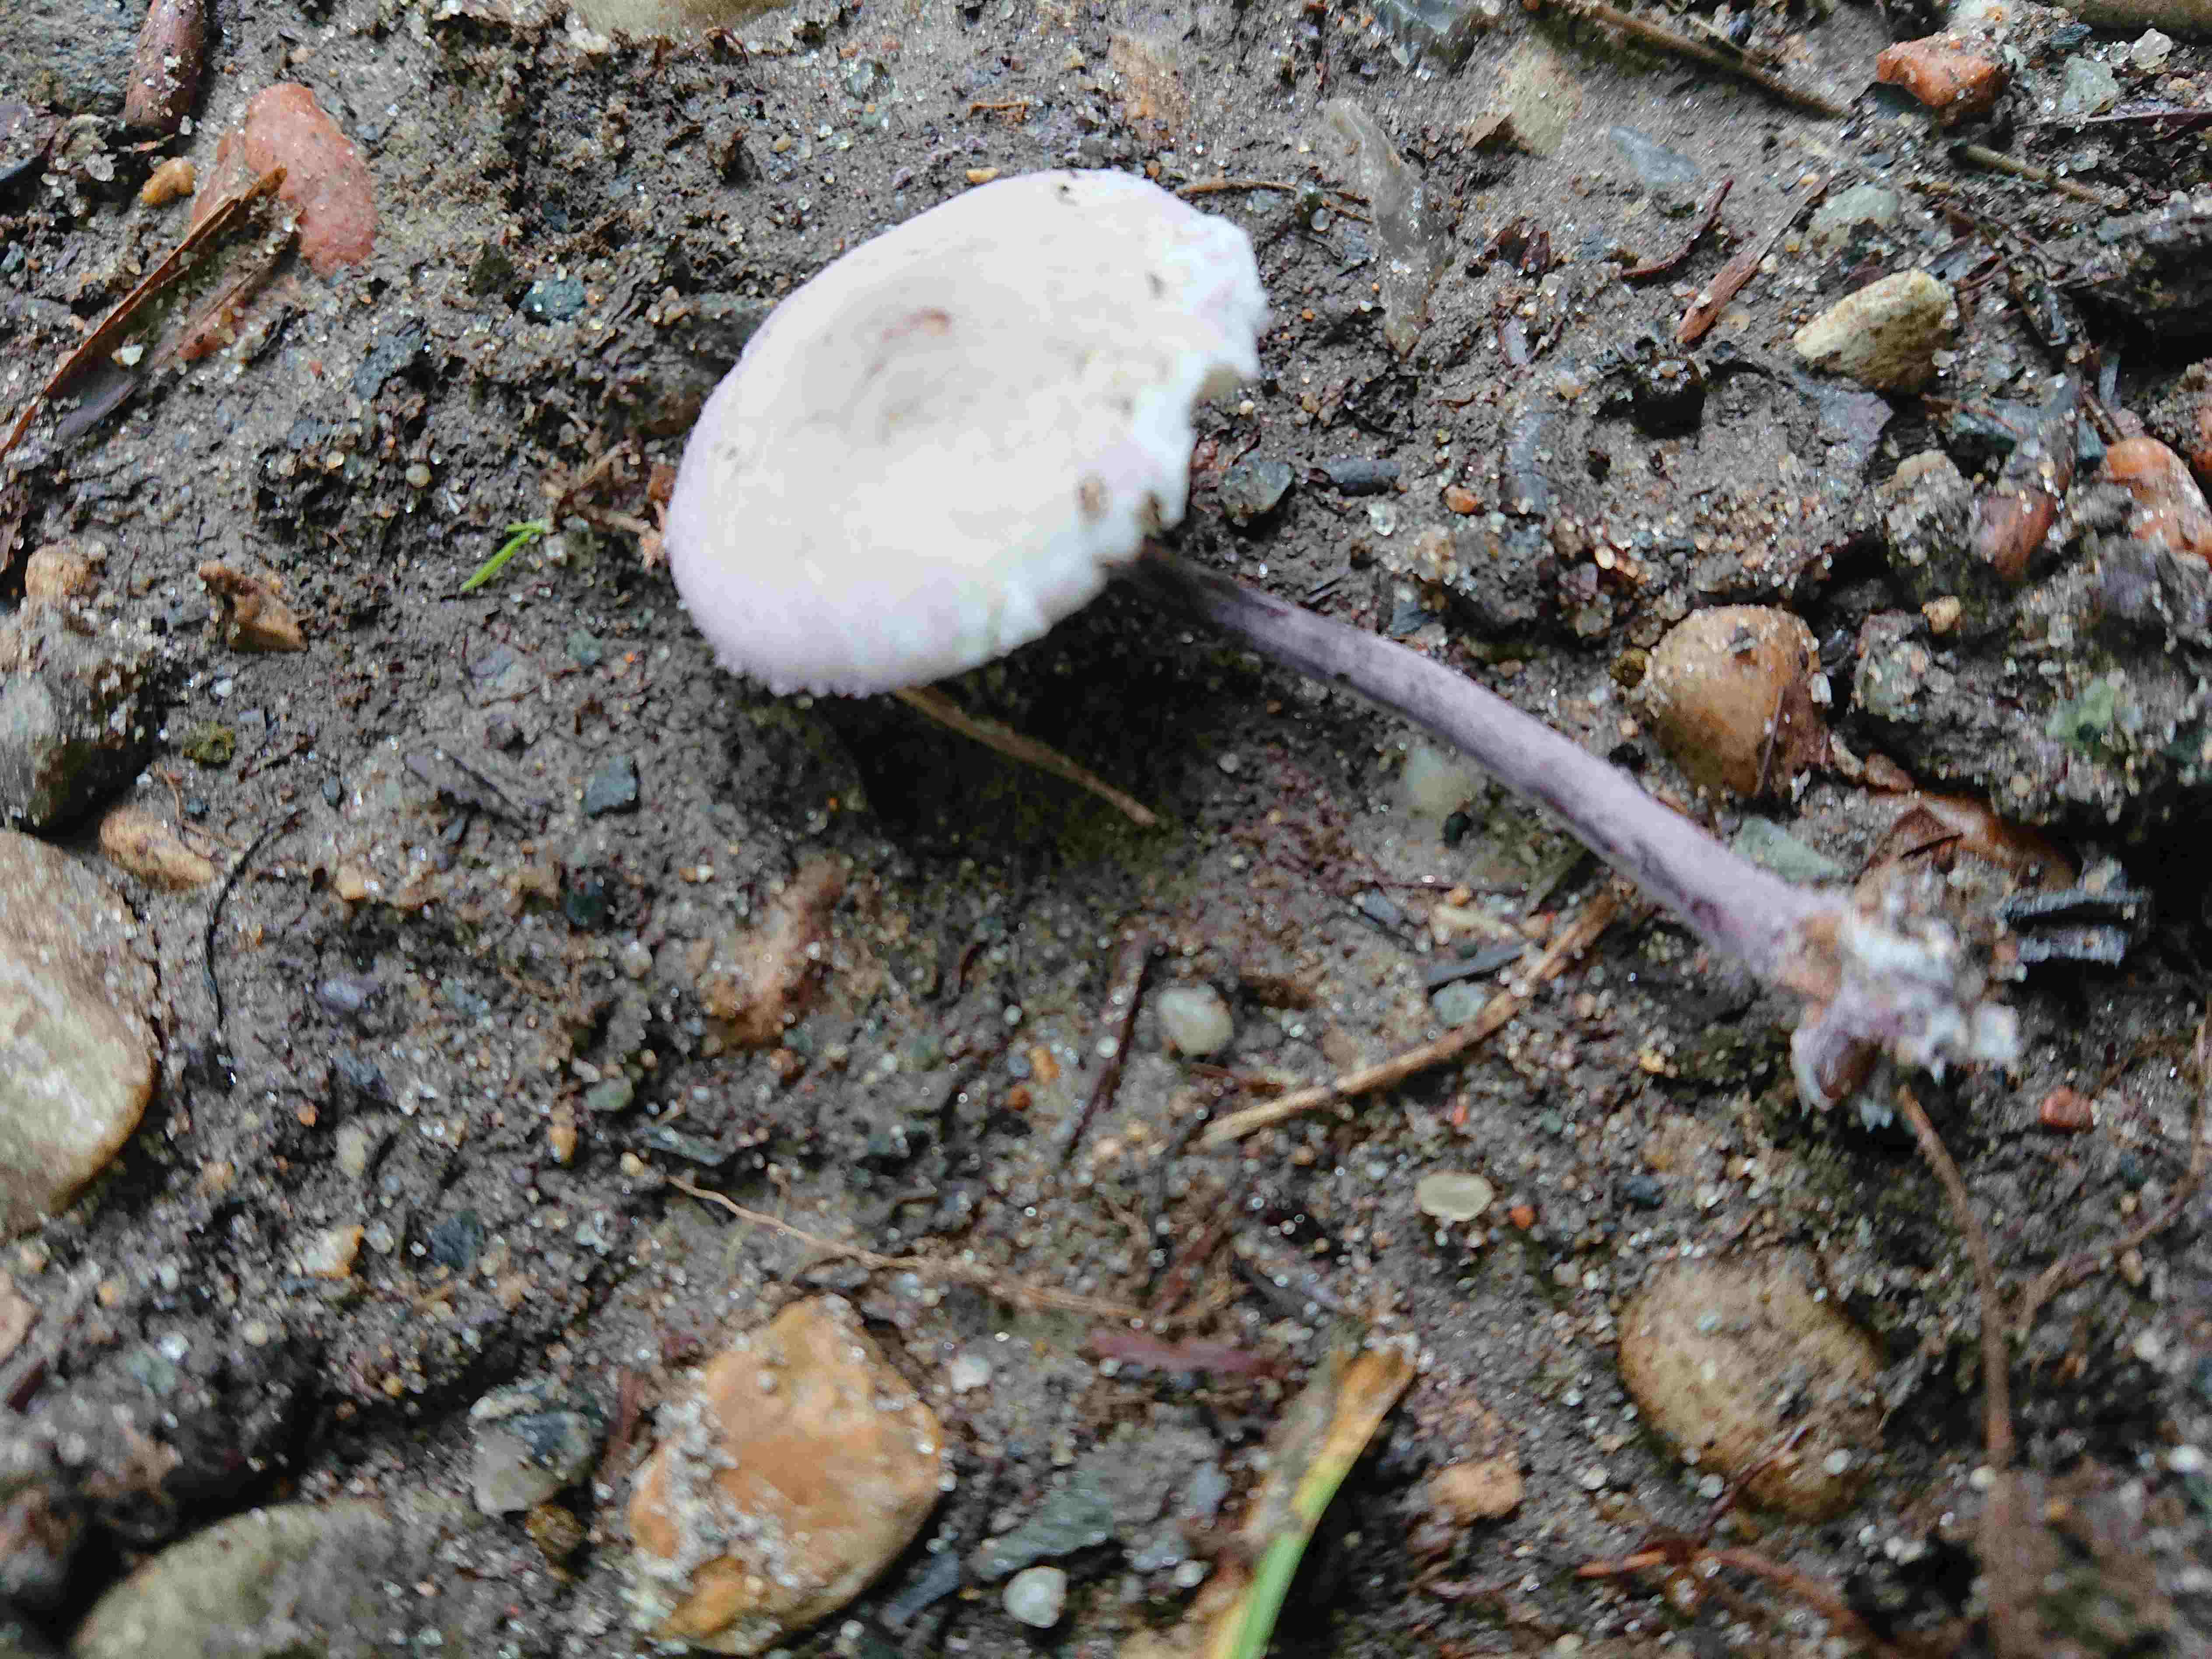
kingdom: Fungi
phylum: Basidiomycota
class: Agaricomycetes
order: Agaricales
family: Agaricaceae
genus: Cystolepiota
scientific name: Cystolepiota bucknallii
